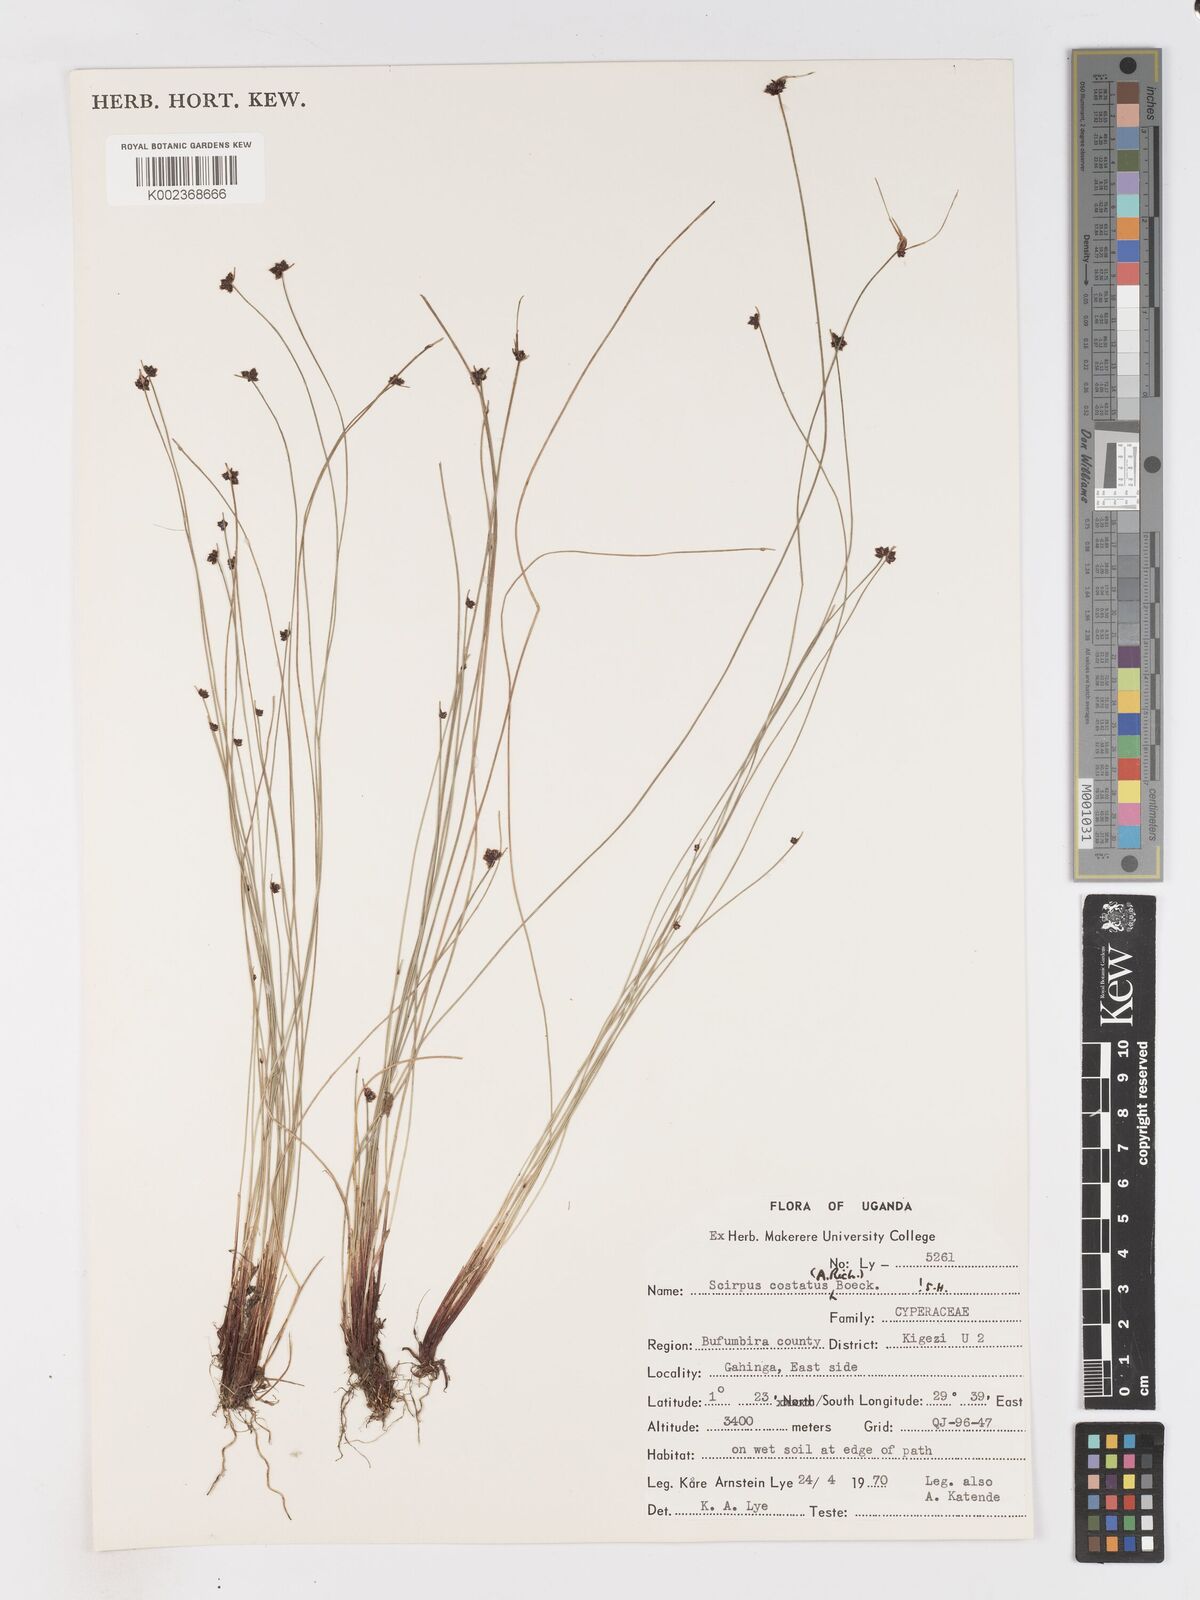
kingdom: Plantae
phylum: Tracheophyta
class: Liliopsida
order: Poales
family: Cyperaceae
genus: Isolepis
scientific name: Isolepis costata
